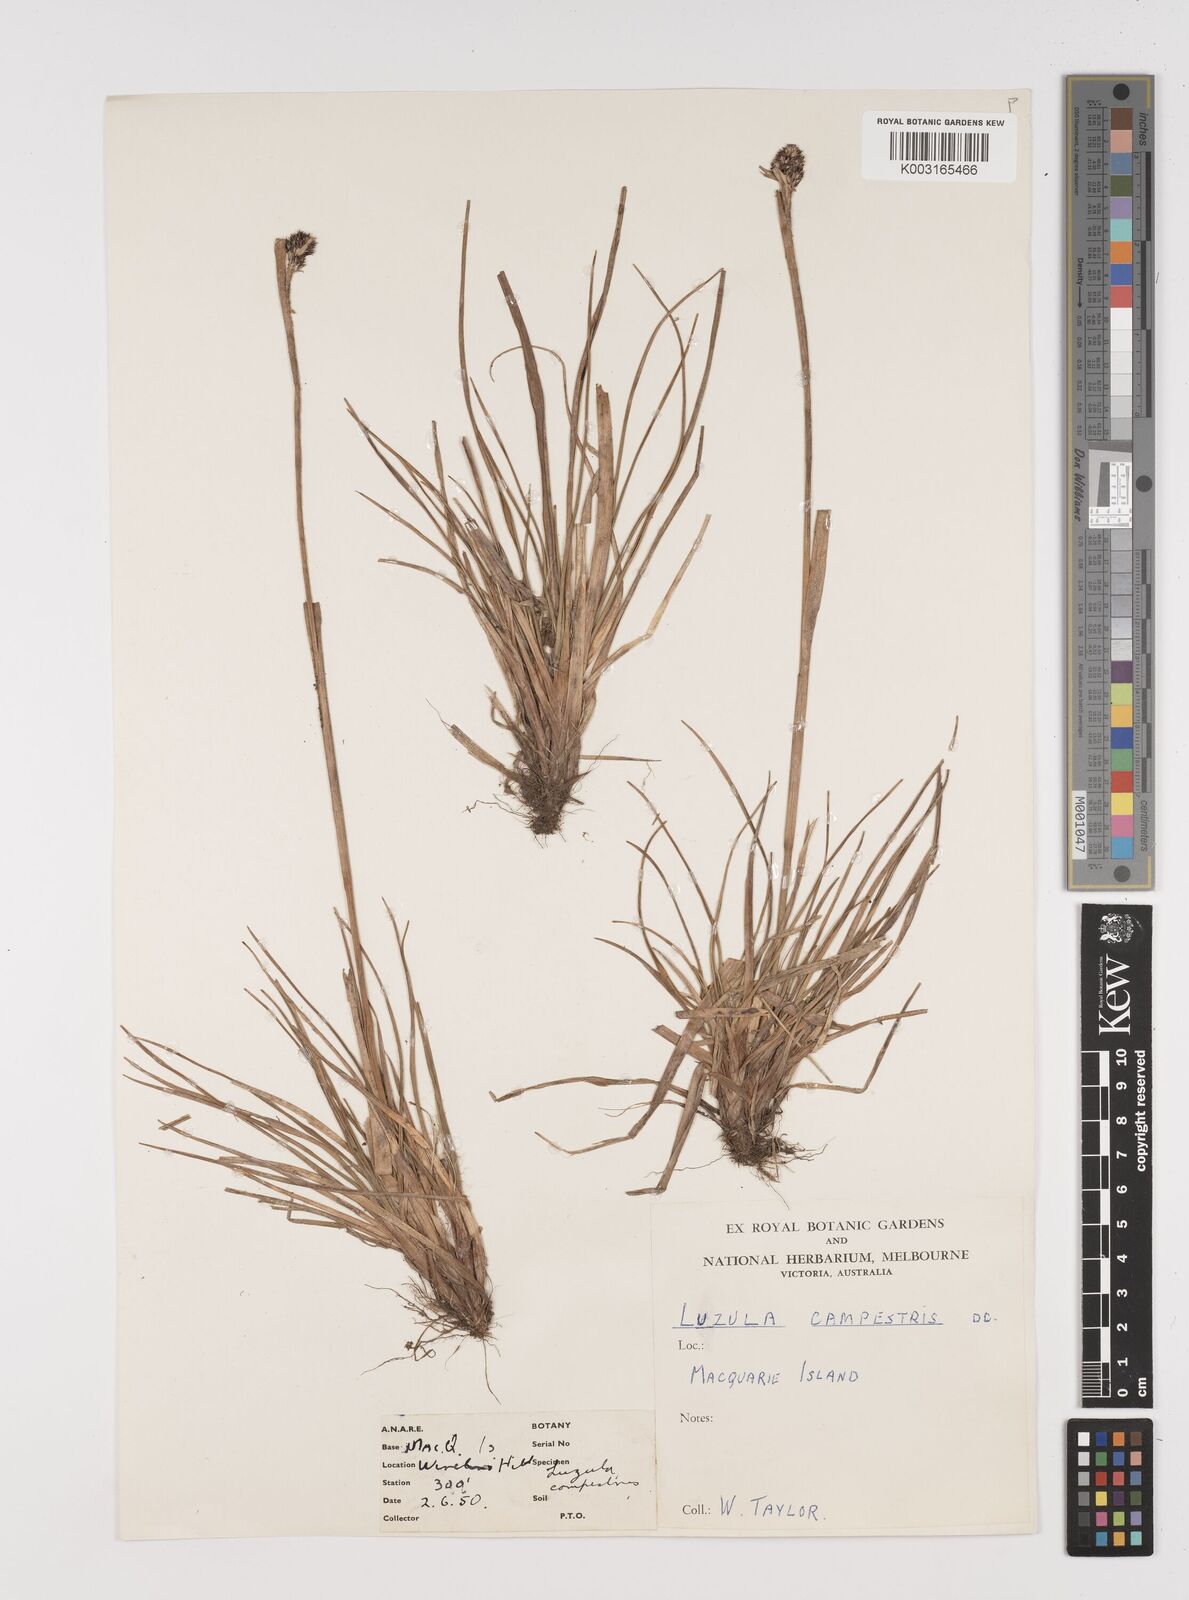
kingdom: Plantae
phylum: Tracheophyta
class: Liliopsida
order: Poales
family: Juncaceae
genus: Luzula
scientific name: Luzula crinita
